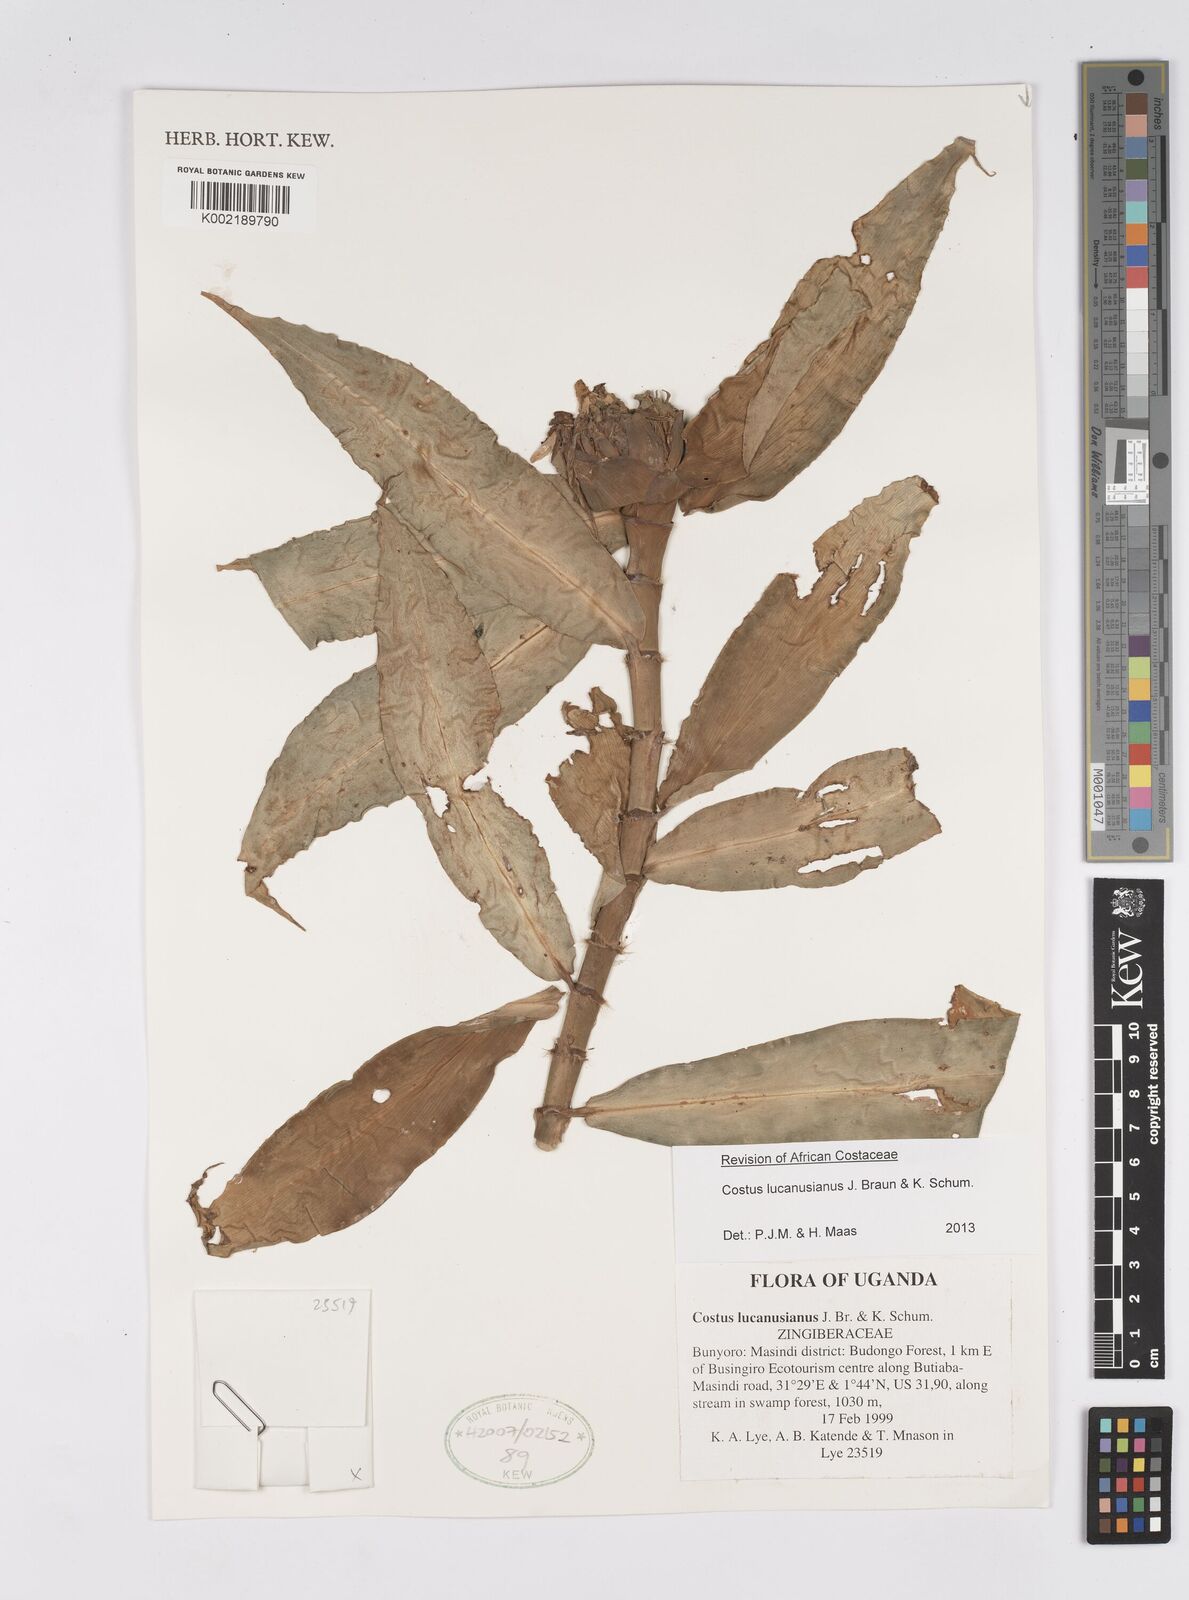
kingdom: Plantae
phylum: Tracheophyta
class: Liliopsida
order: Zingiberales
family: Costaceae
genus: Costus
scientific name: Costus lucanusianus
